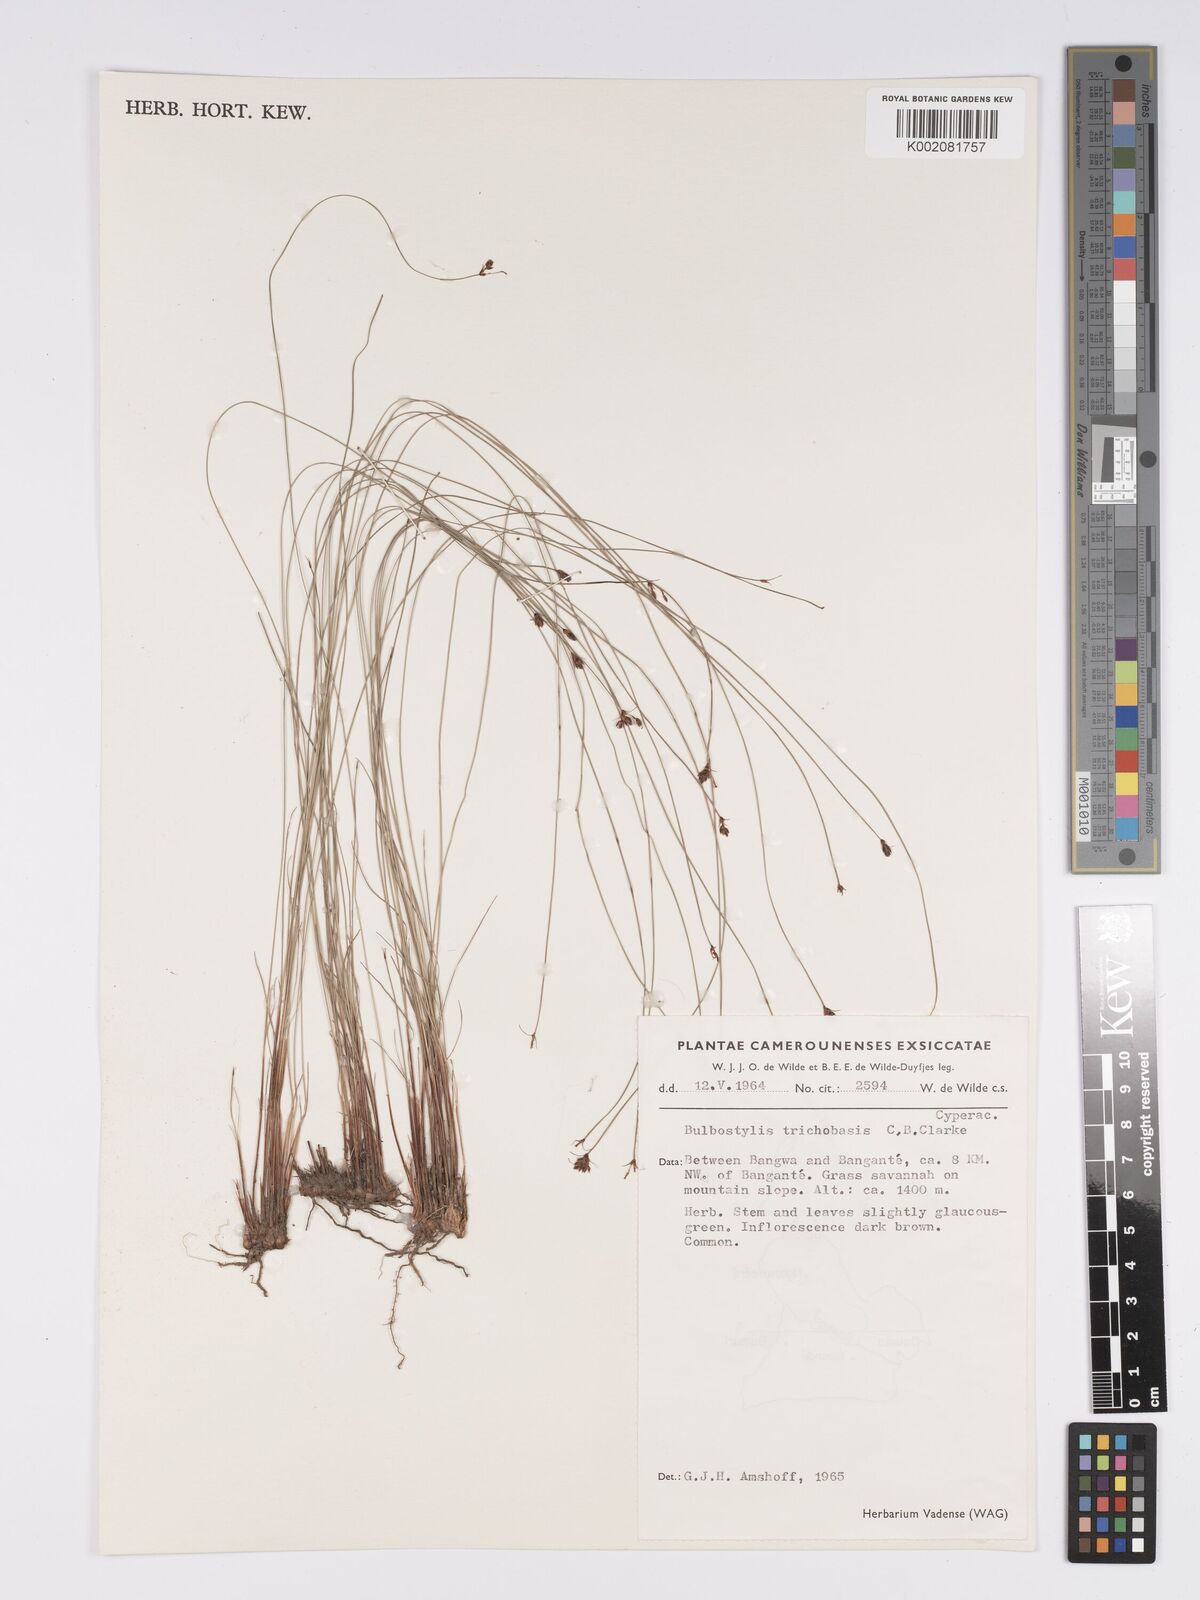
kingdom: Plantae
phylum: Tracheophyta
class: Liliopsida
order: Poales
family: Cyperaceae
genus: Bulbostylis
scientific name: Bulbostylis oritrephes
